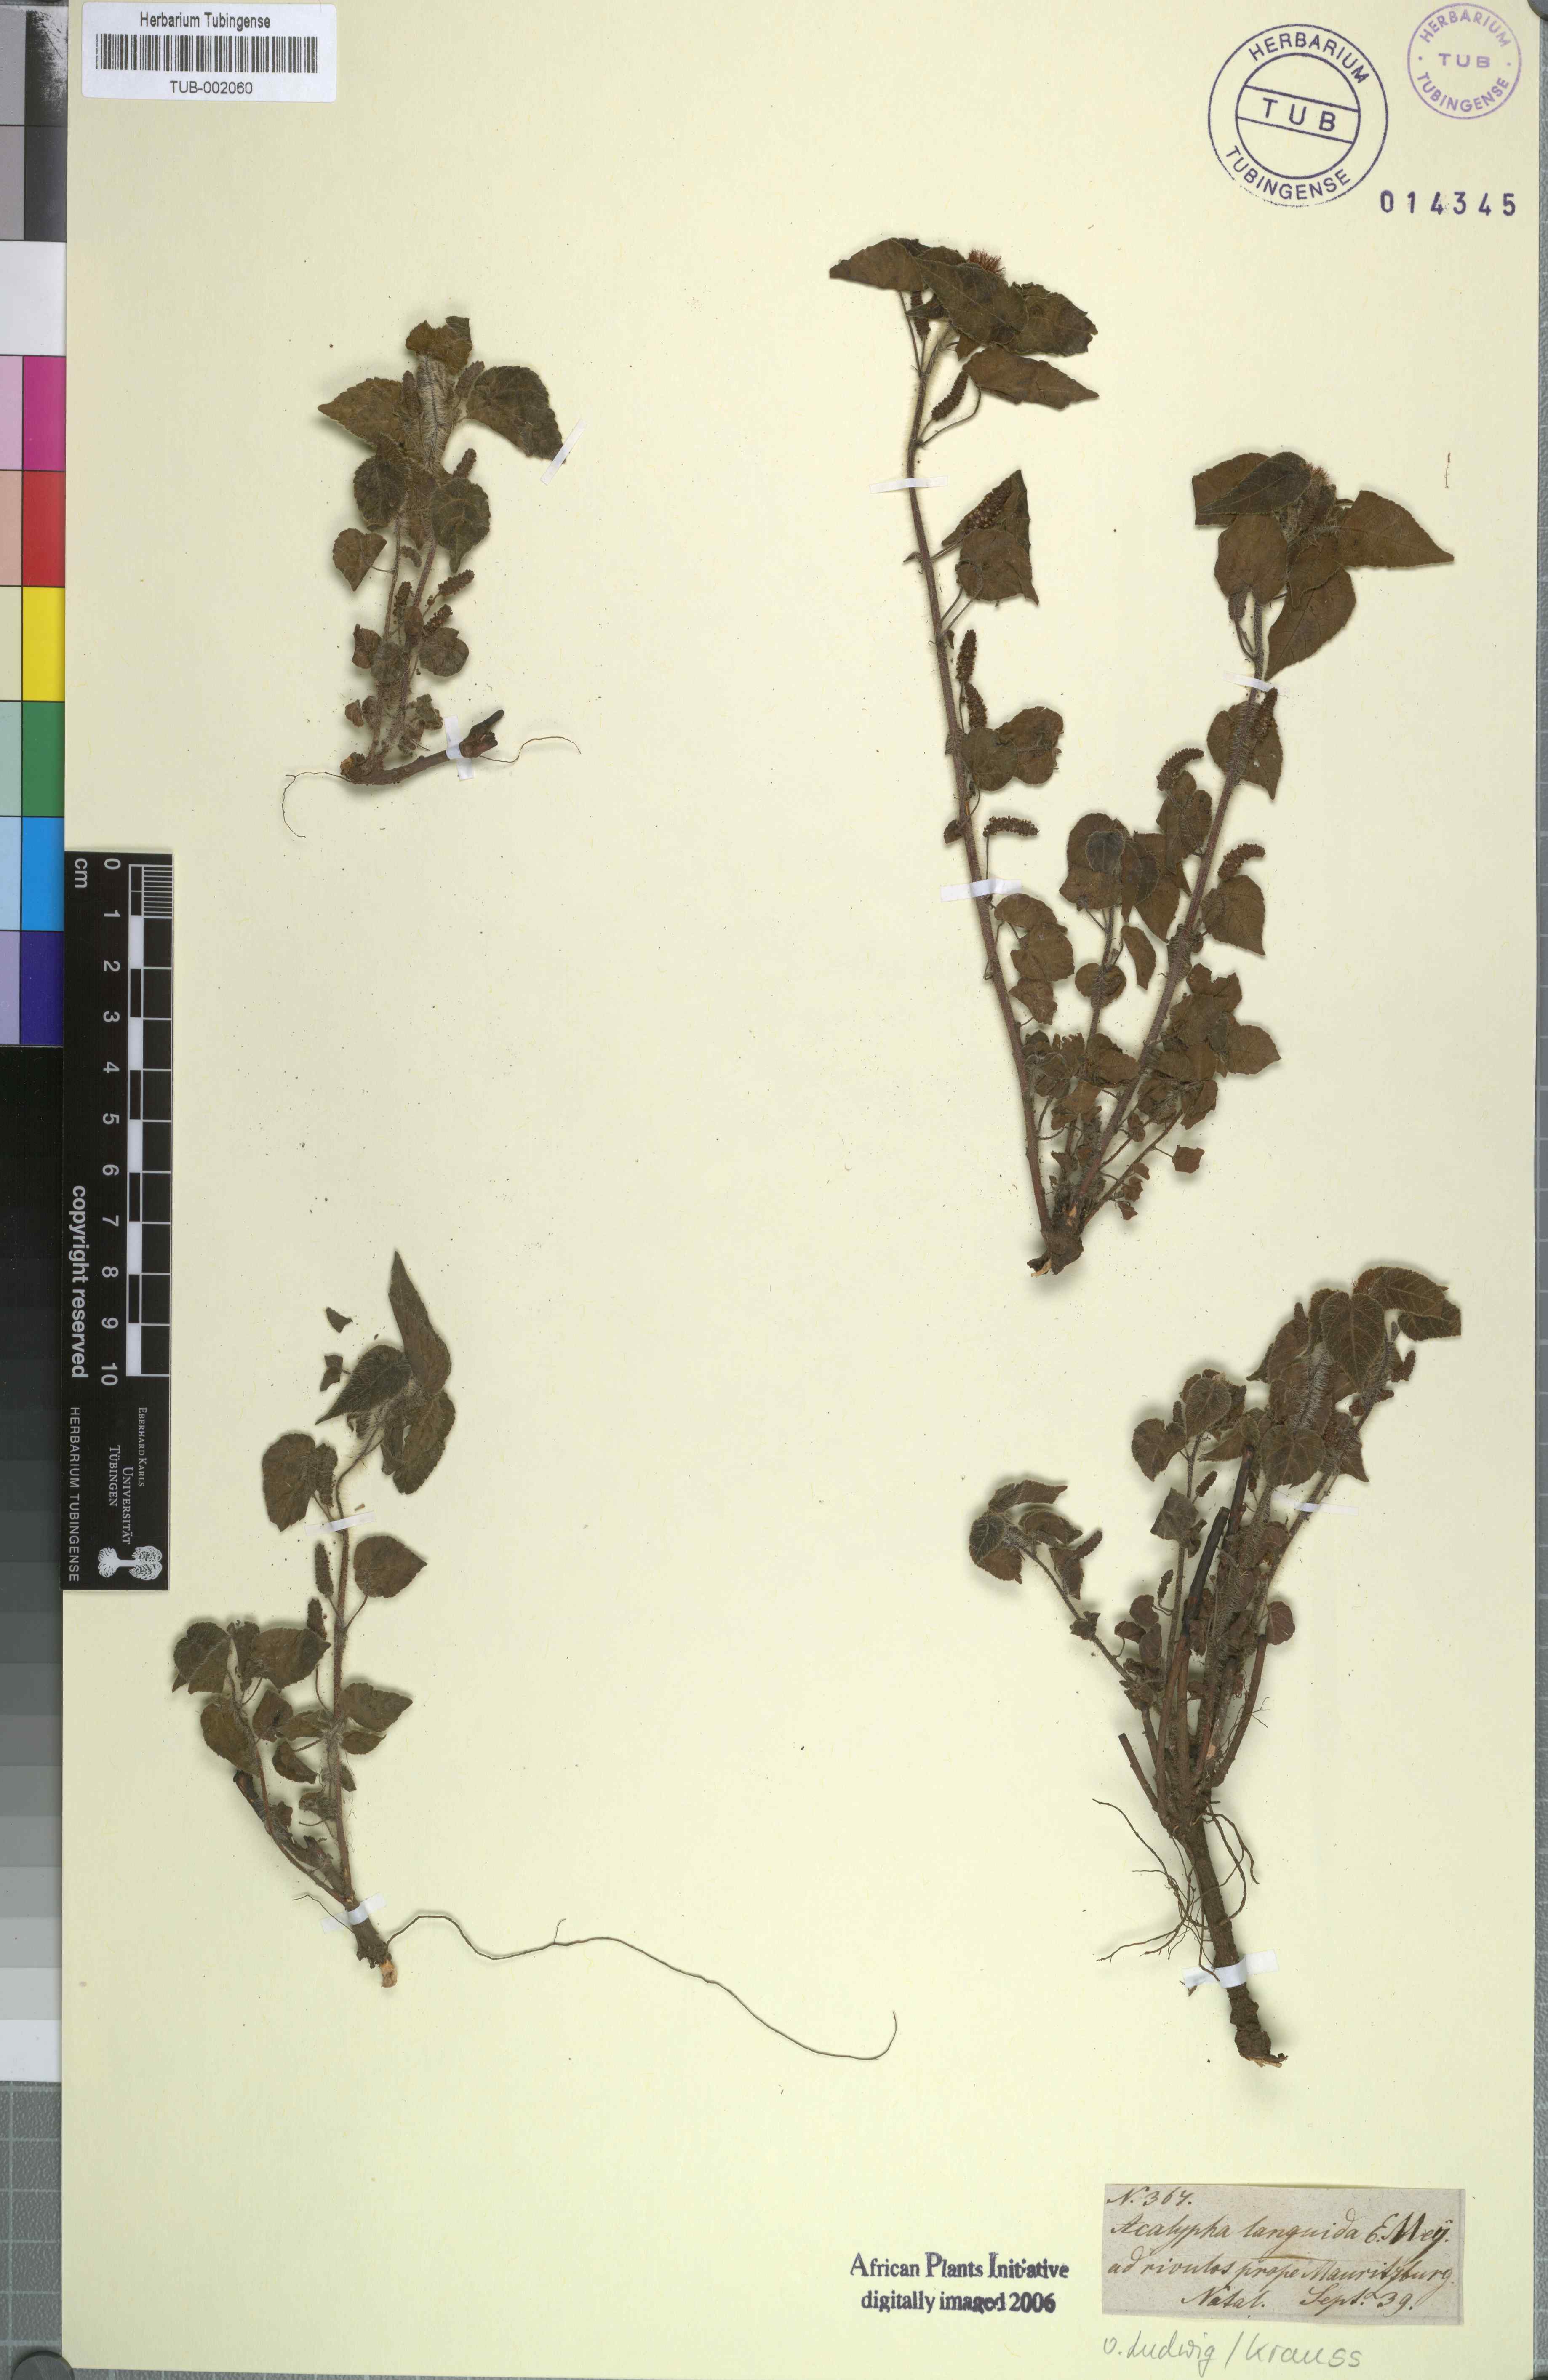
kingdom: Plantae
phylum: Tracheophyta
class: Magnoliopsida
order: Malpighiales
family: Euphorbiaceae
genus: Acalypha
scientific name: Acalypha petiolaris
